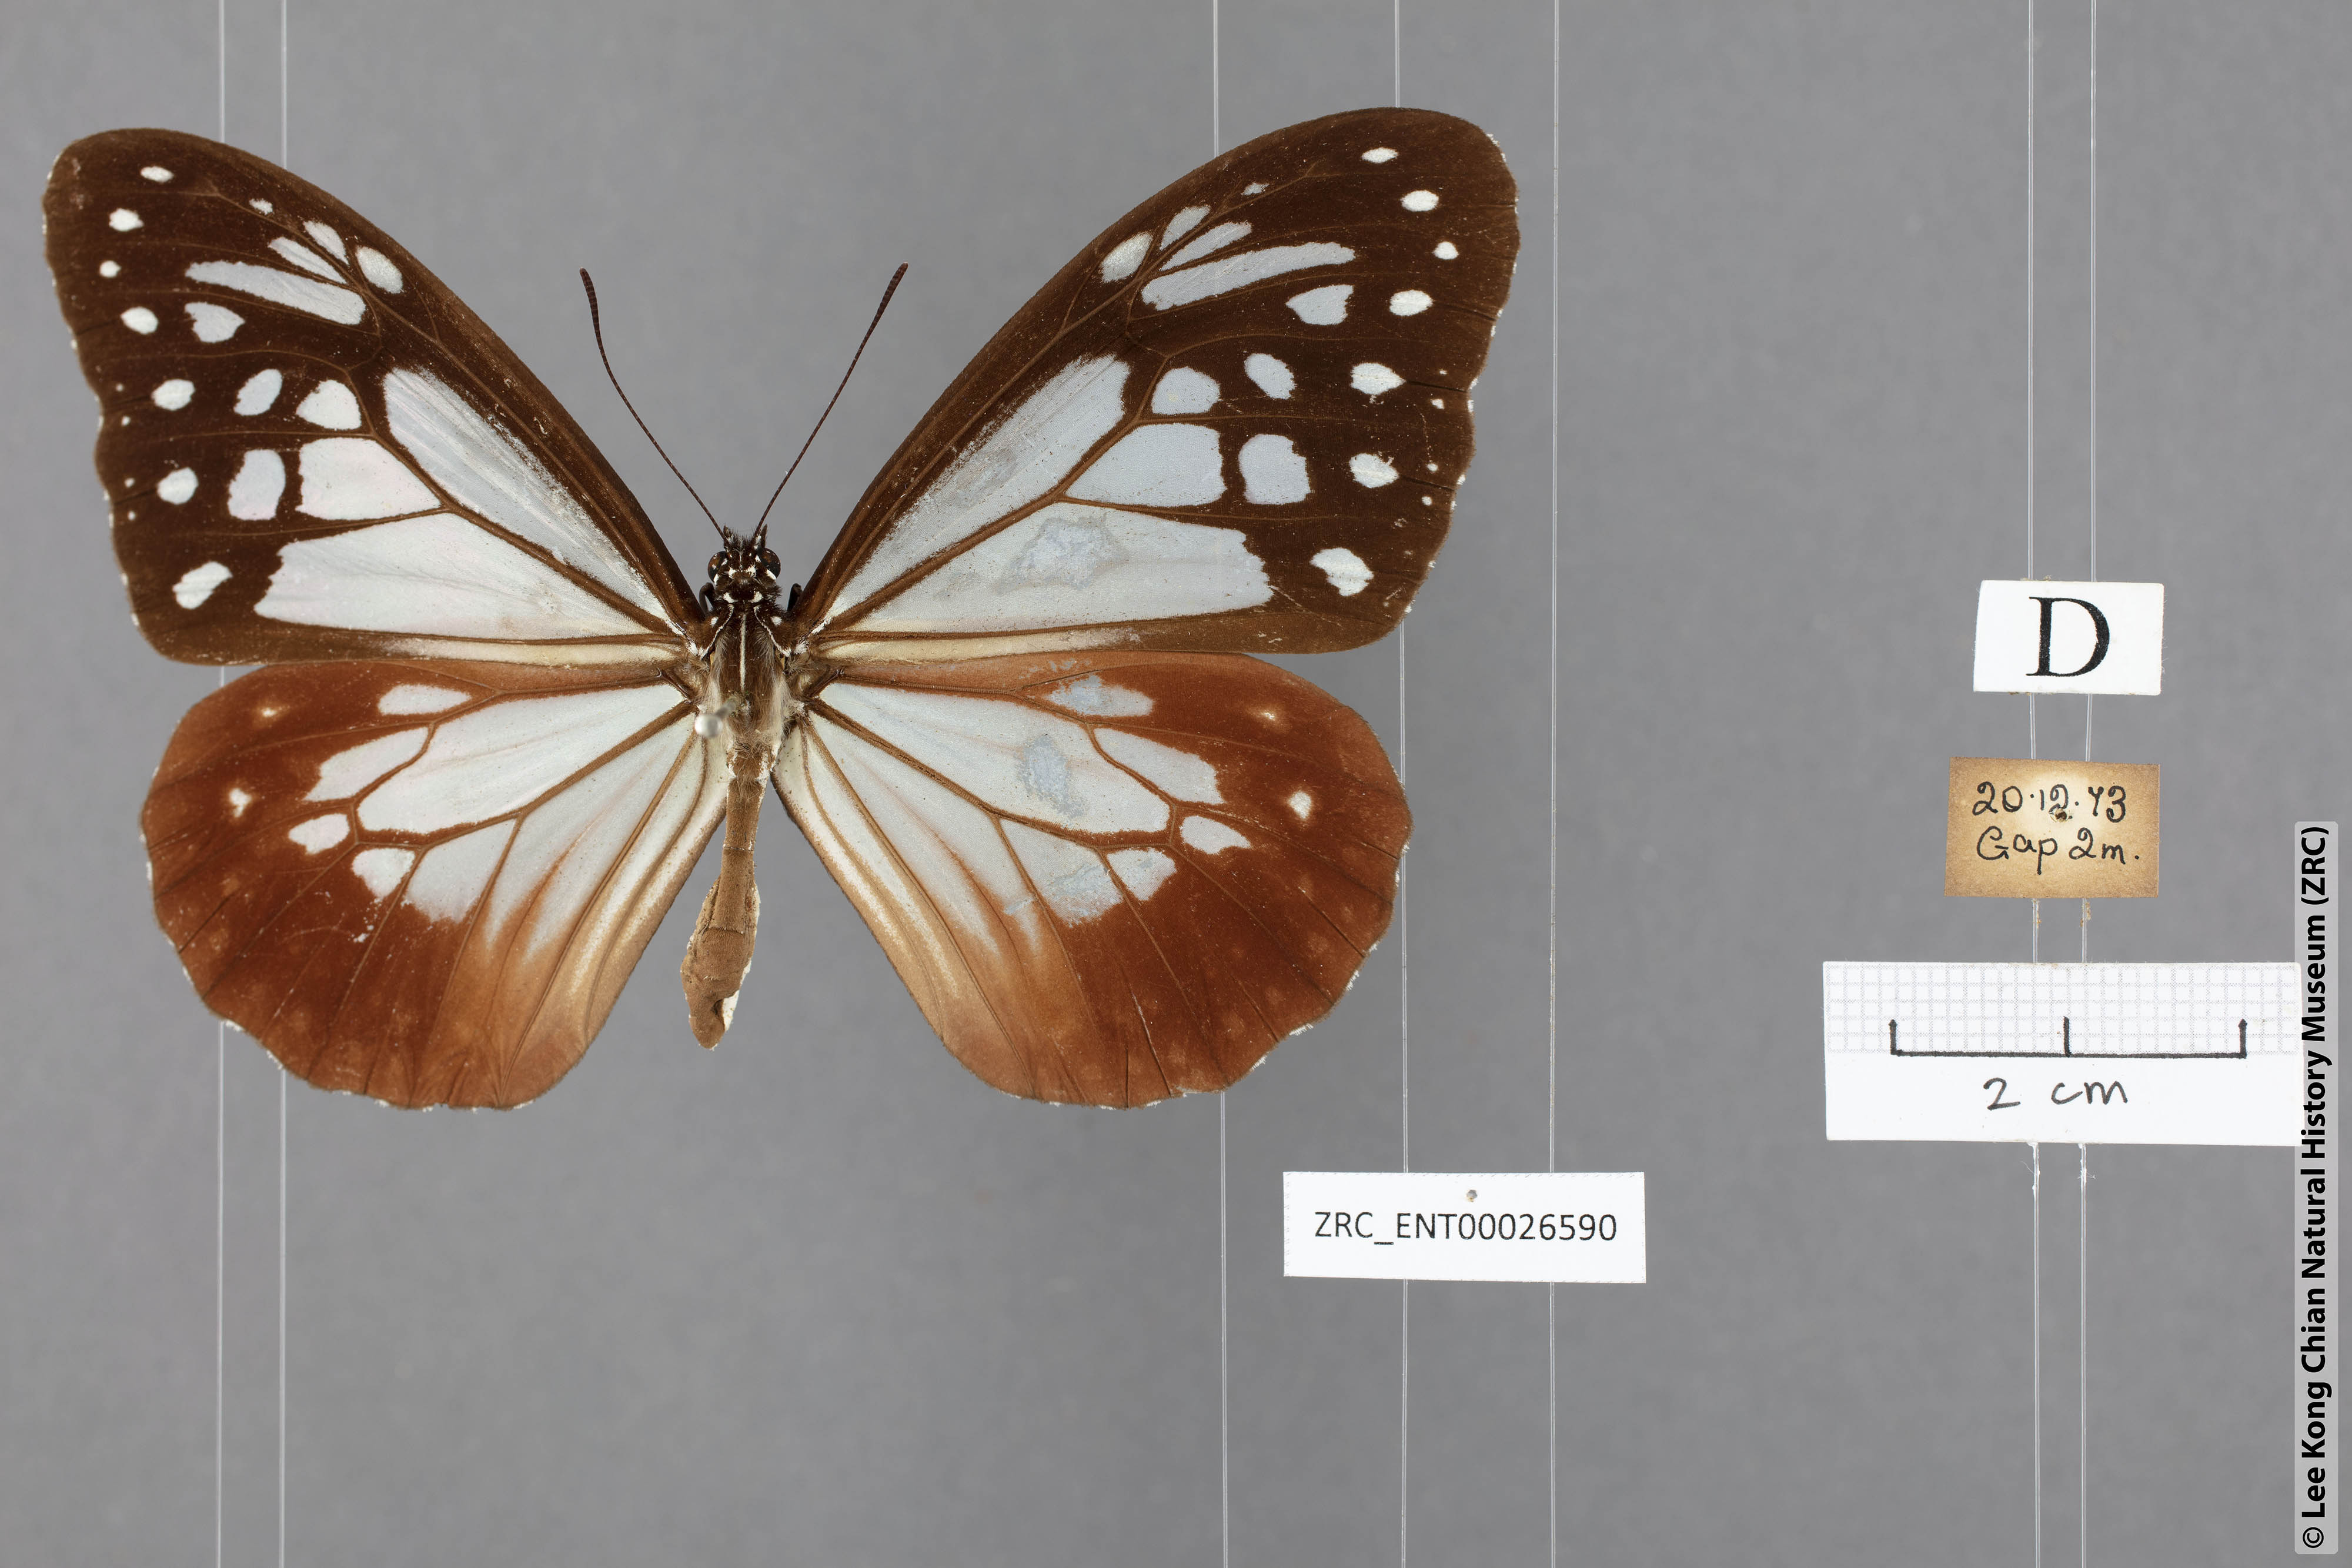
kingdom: Animalia
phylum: Arthropoda
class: Insecta
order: Lepidoptera
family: Nymphalidae
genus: Parantica
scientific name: Parantica sita
